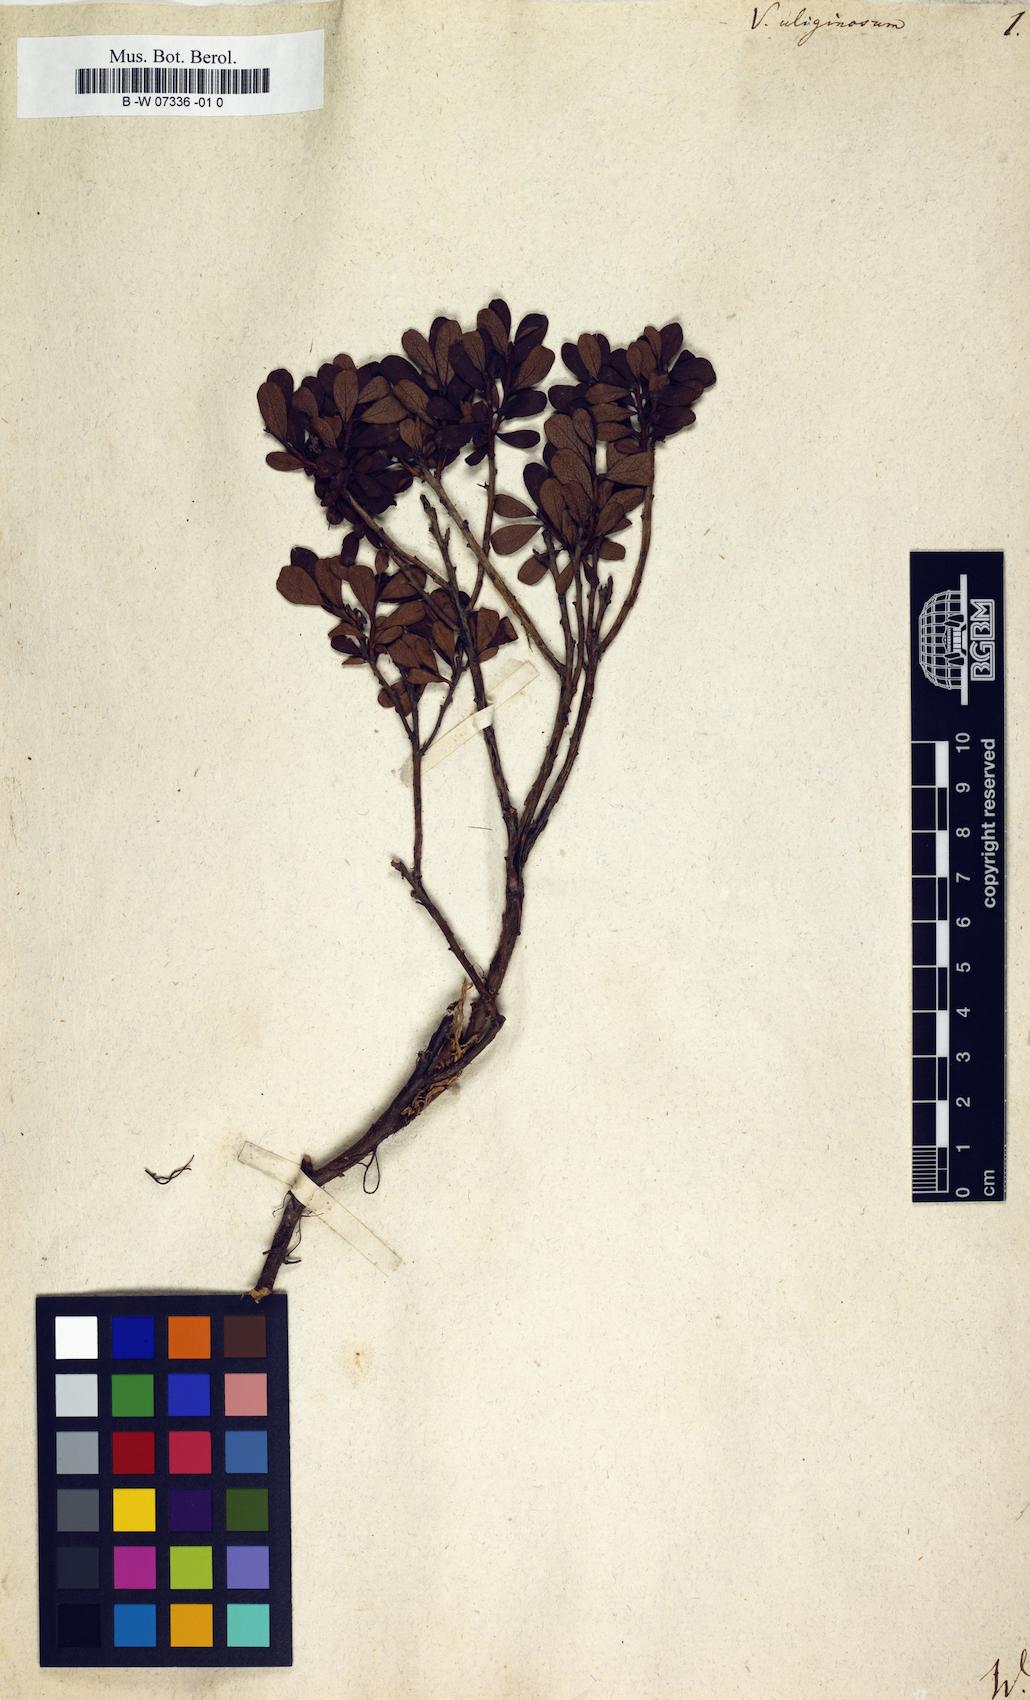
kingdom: Plantae
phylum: Tracheophyta
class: Magnoliopsida
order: Ericales
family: Ericaceae
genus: Vaccinium
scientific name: Vaccinium uliginosum
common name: Bog bilberry
